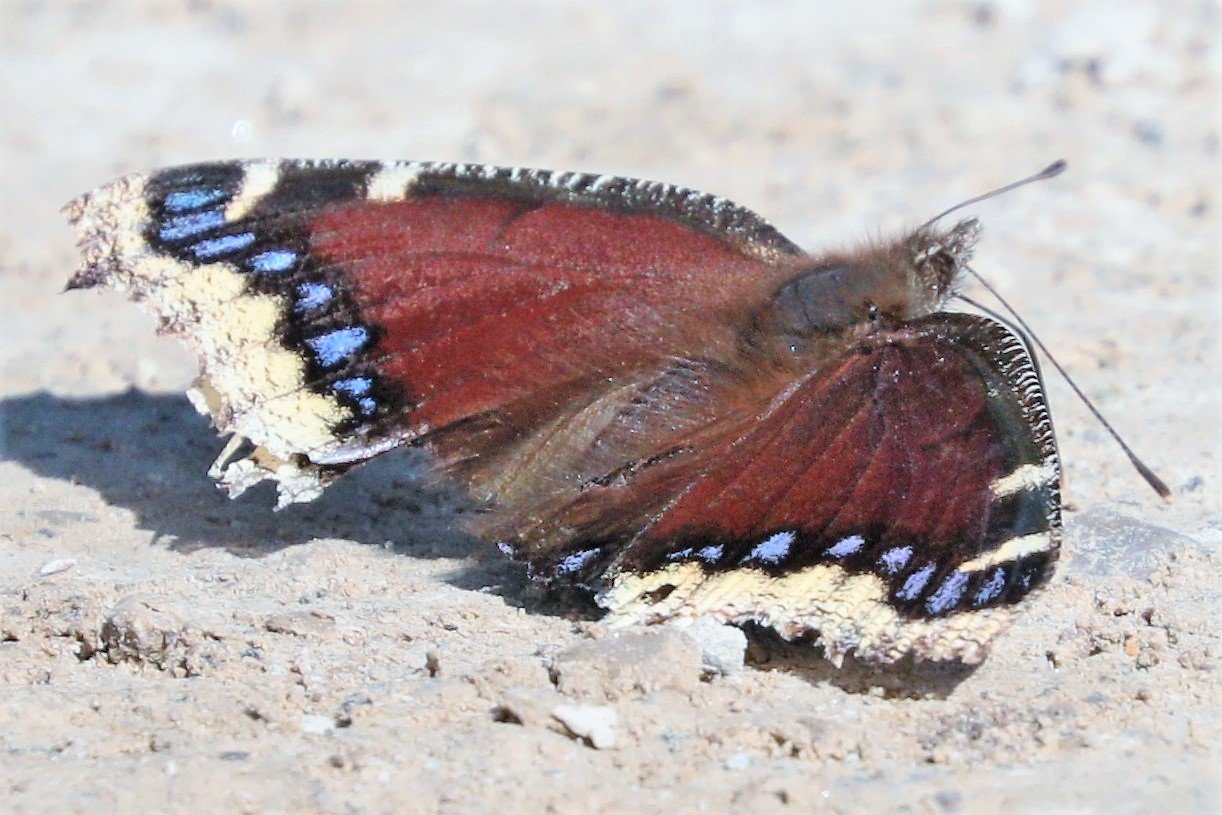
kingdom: Animalia
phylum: Arthropoda
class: Insecta
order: Lepidoptera
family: Nymphalidae
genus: Nymphalis
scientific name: Nymphalis antiopa
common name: Mourning Cloak
